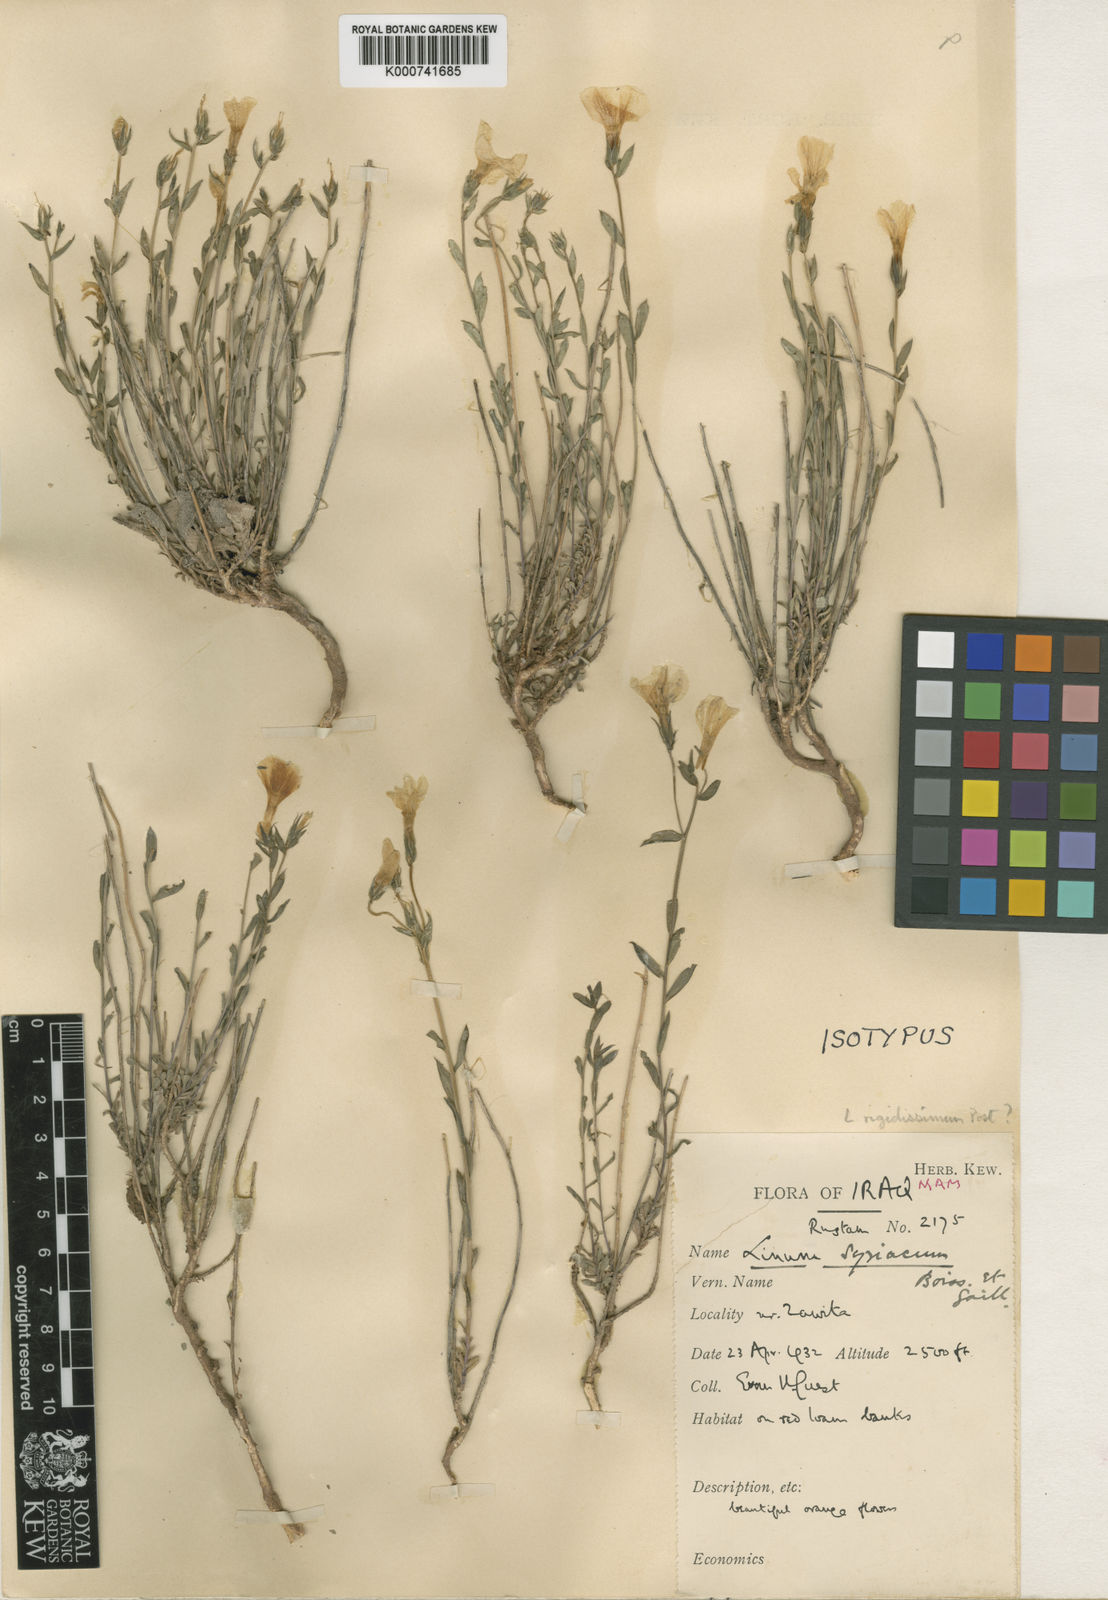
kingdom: Plantae
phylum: Tracheophyta
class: Magnoliopsida
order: Malpighiales
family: Linaceae
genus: Linum
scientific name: Linum
